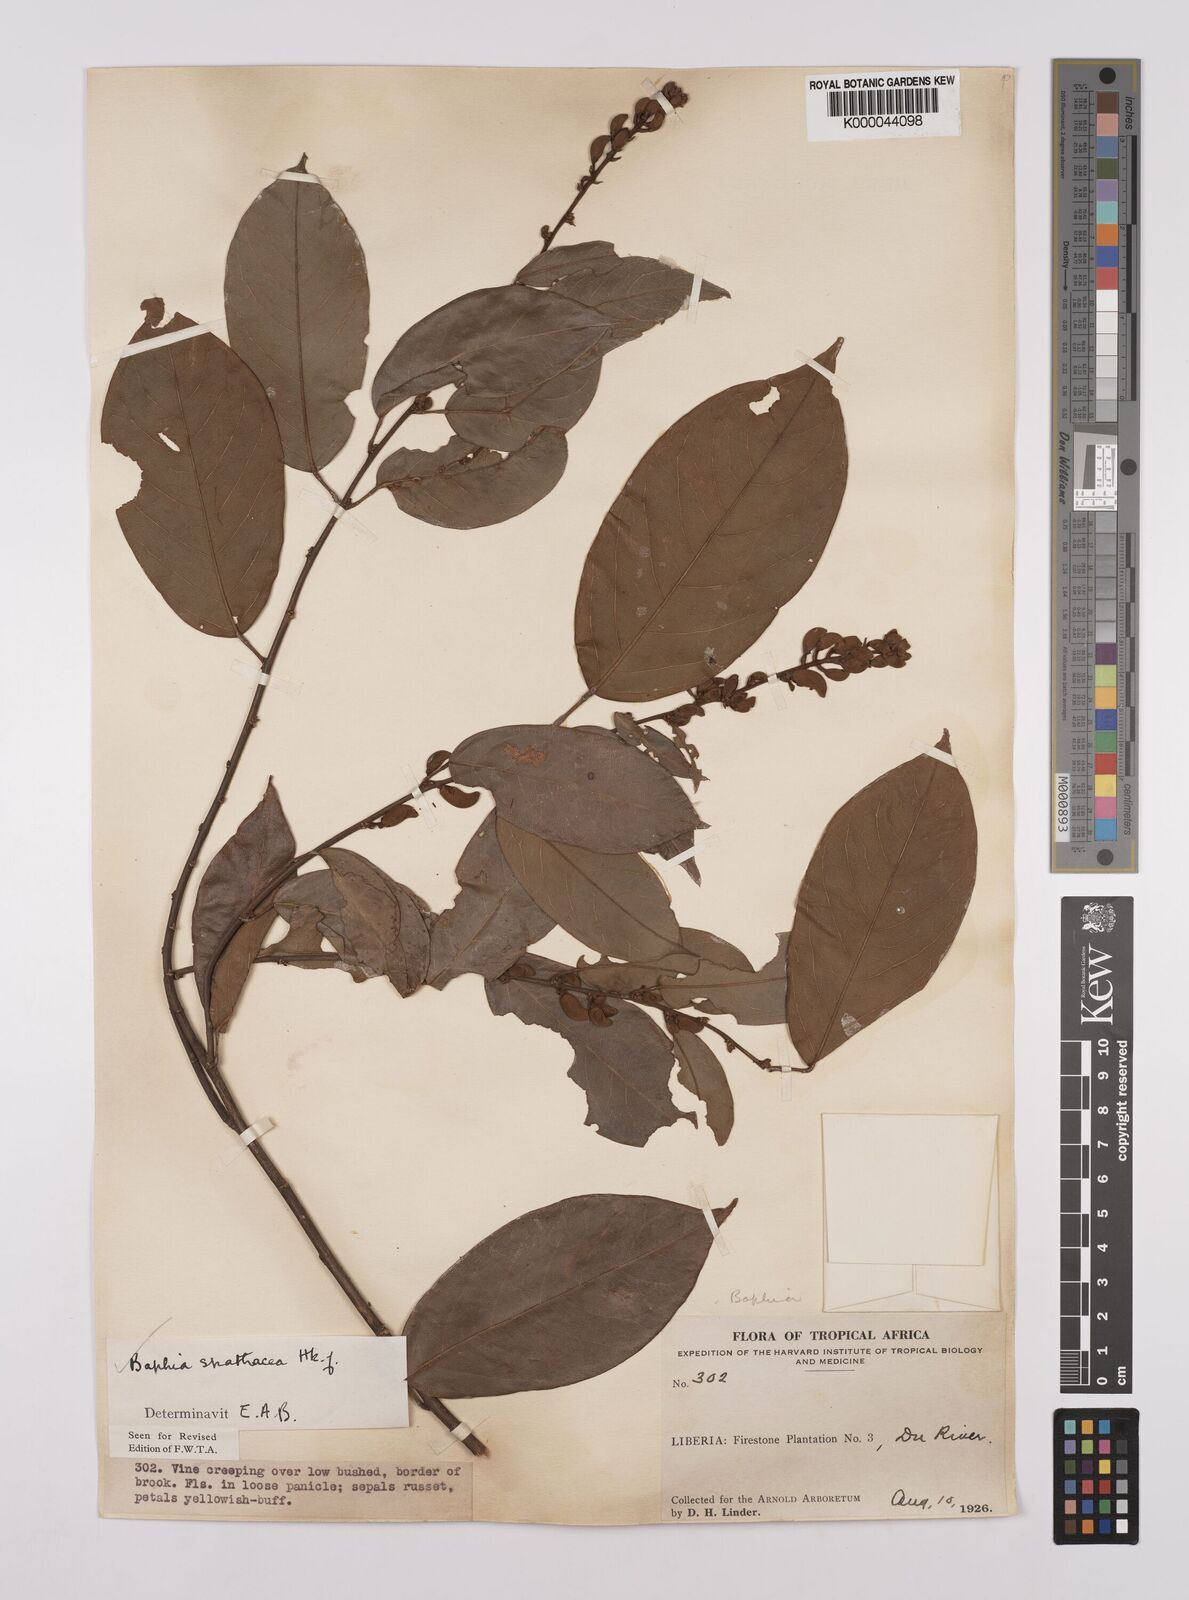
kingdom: Plantae
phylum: Tracheophyta
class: Magnoliopsida
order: Fabales
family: Fabaceae
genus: Baphia
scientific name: Baphia spathacea
